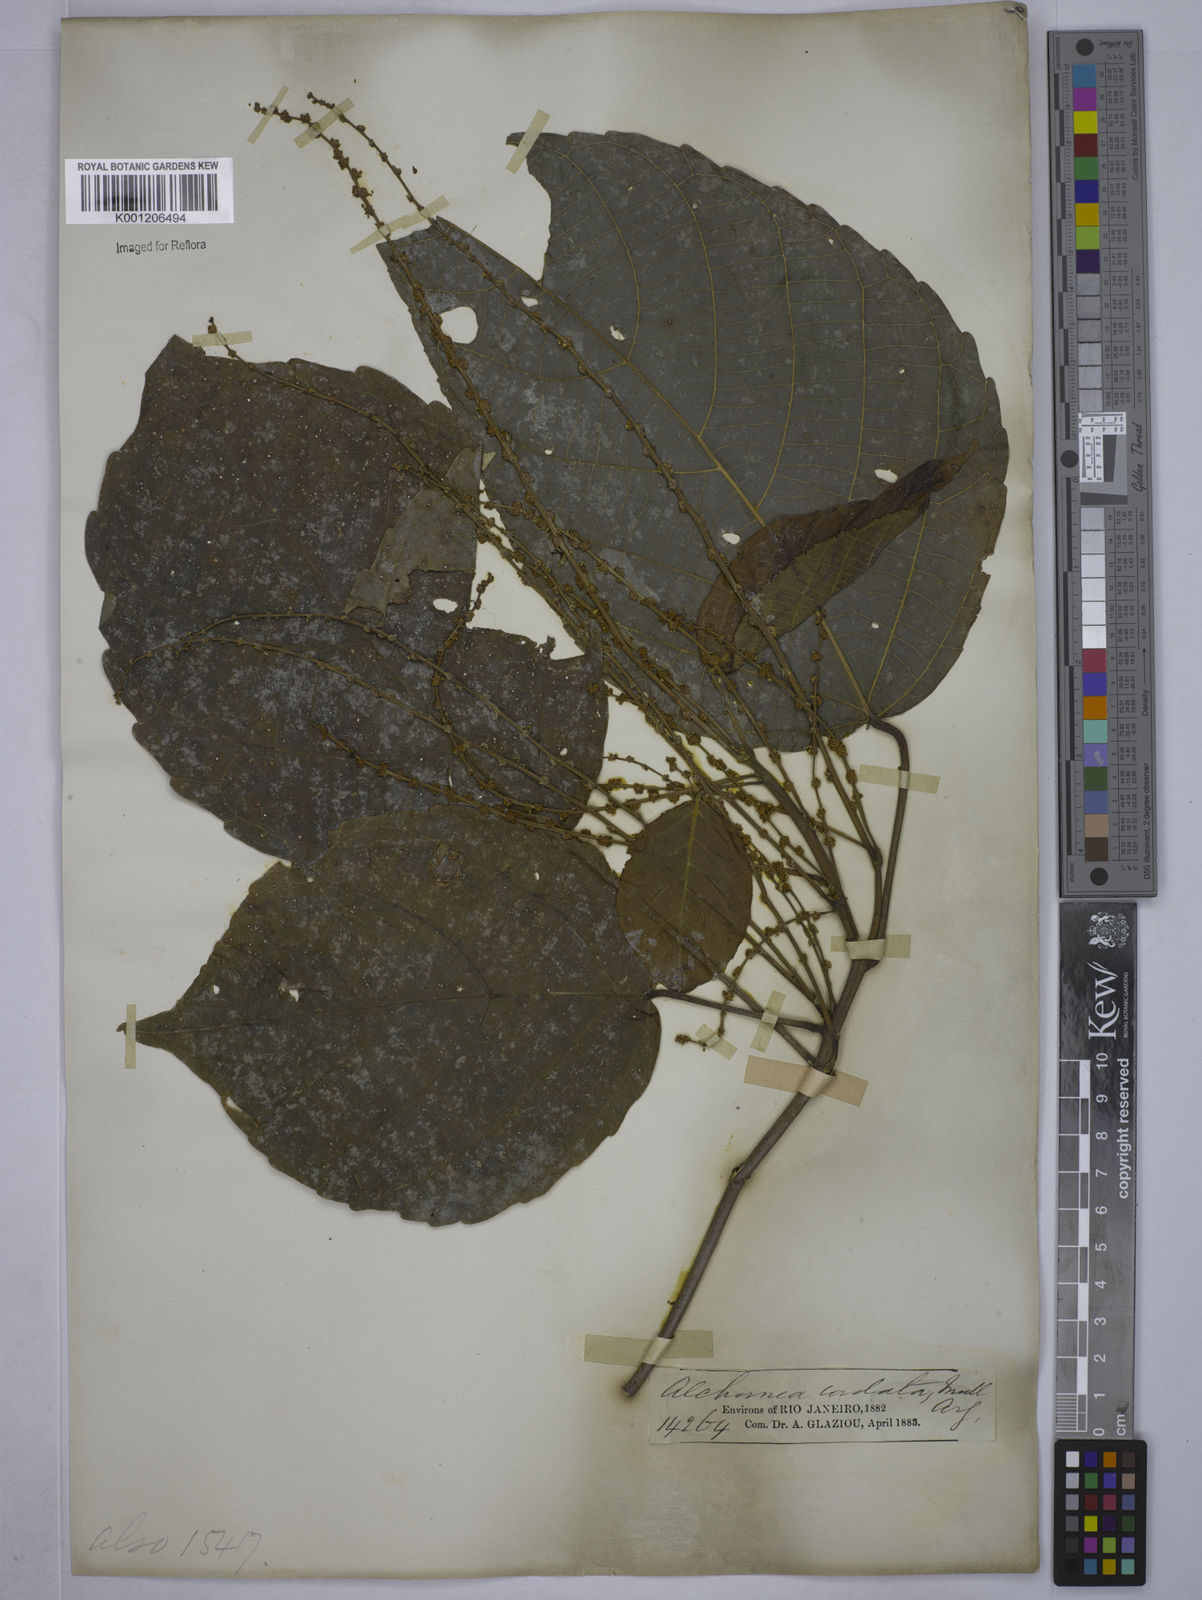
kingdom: Plantae
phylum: Tracheophyta
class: Magnoliopsida
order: Malpighiales
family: Euphorbiaceae
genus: Aparisthmium
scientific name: Aparisthmium cordatum
